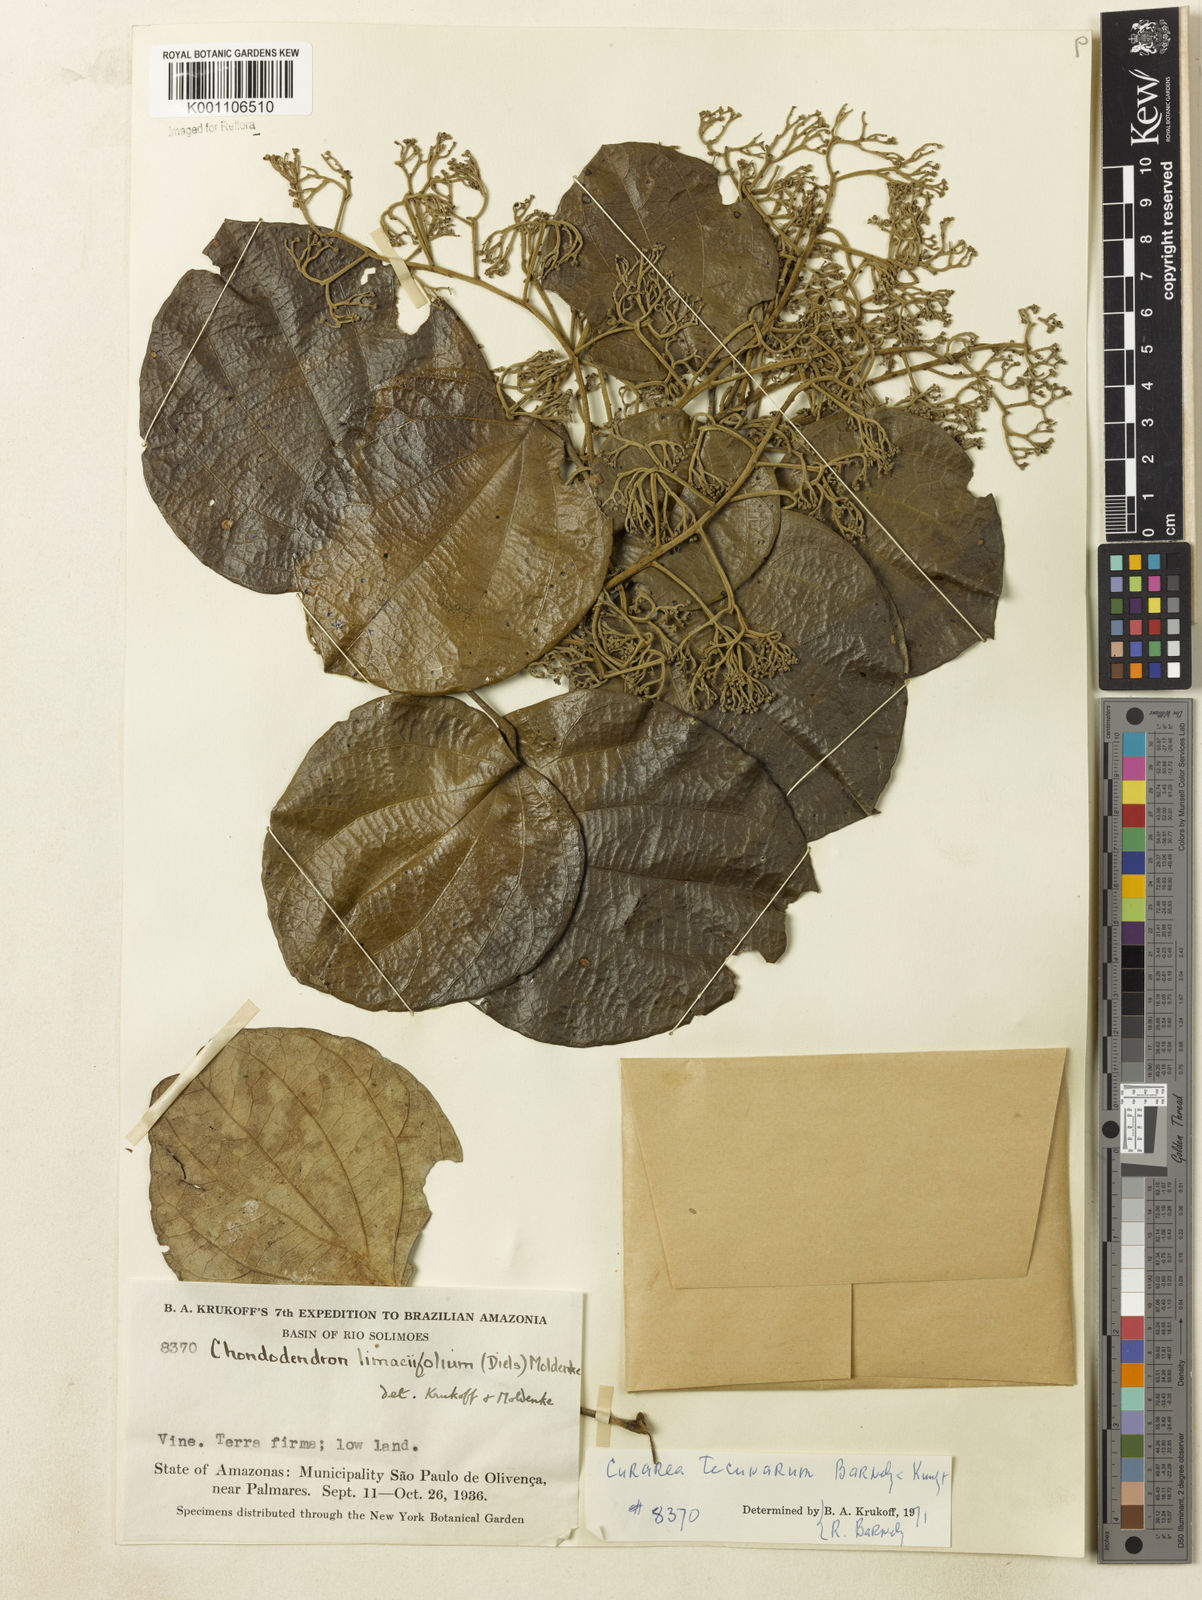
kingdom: Plantae
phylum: Tracheophyta
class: Magnoliopsida
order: Ranunculales
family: Menispermaceae
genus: Curarea
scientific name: Curarea tecunarum
